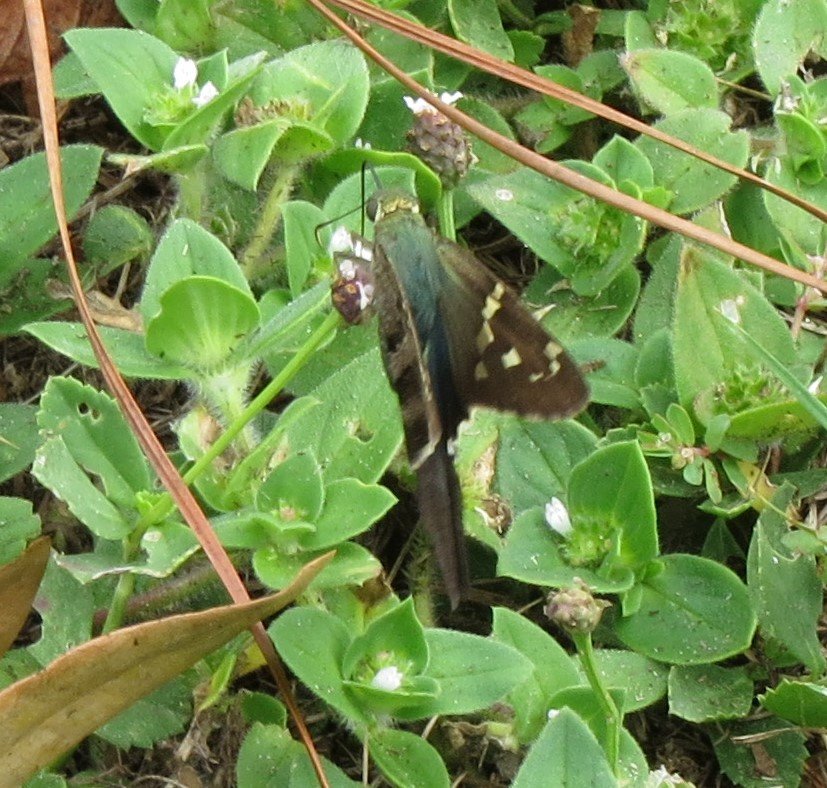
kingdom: Animalia
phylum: Arthropoda
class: Insecta
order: Lepidoptera
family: Hesperiidae
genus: Urbanus
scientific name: Urbanus proteus
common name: Long-tailed Skipper
